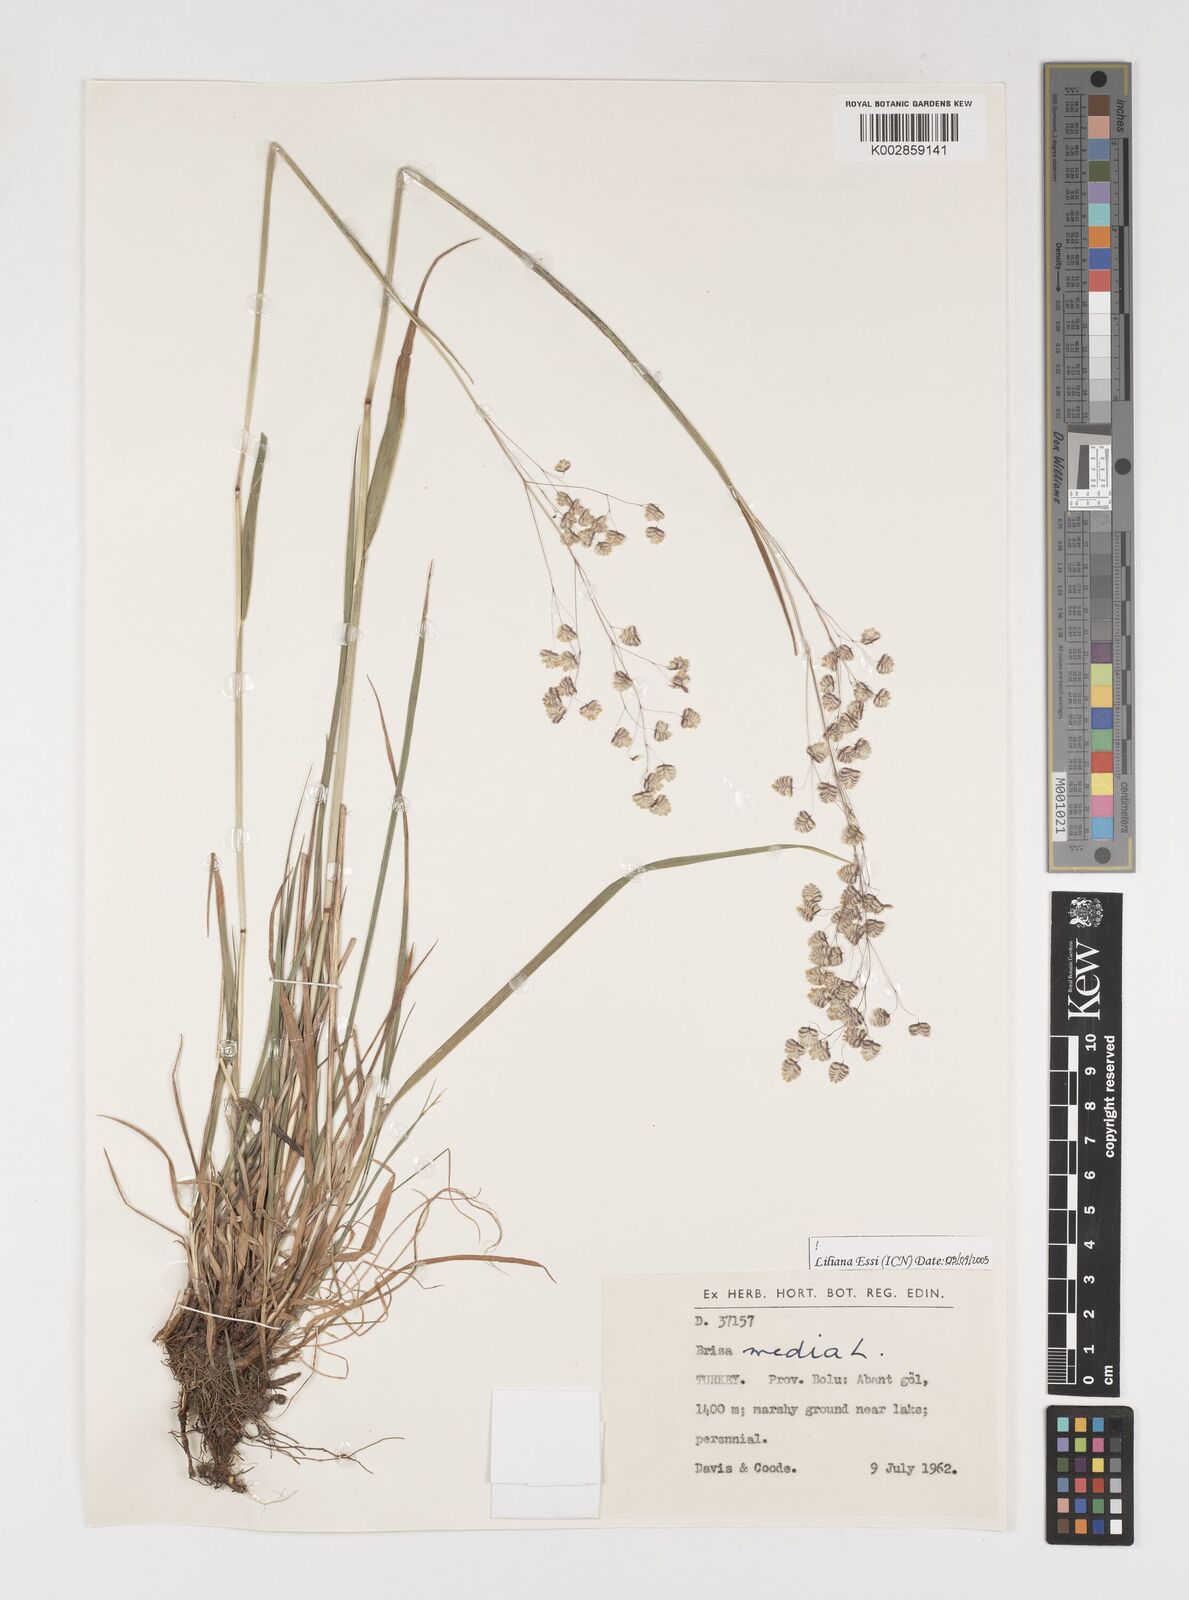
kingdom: Plantae
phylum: Tracheophyta
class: Liliopsida
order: Poales
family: Poaceae
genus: Briza
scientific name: Briza media
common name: Quaking grass
